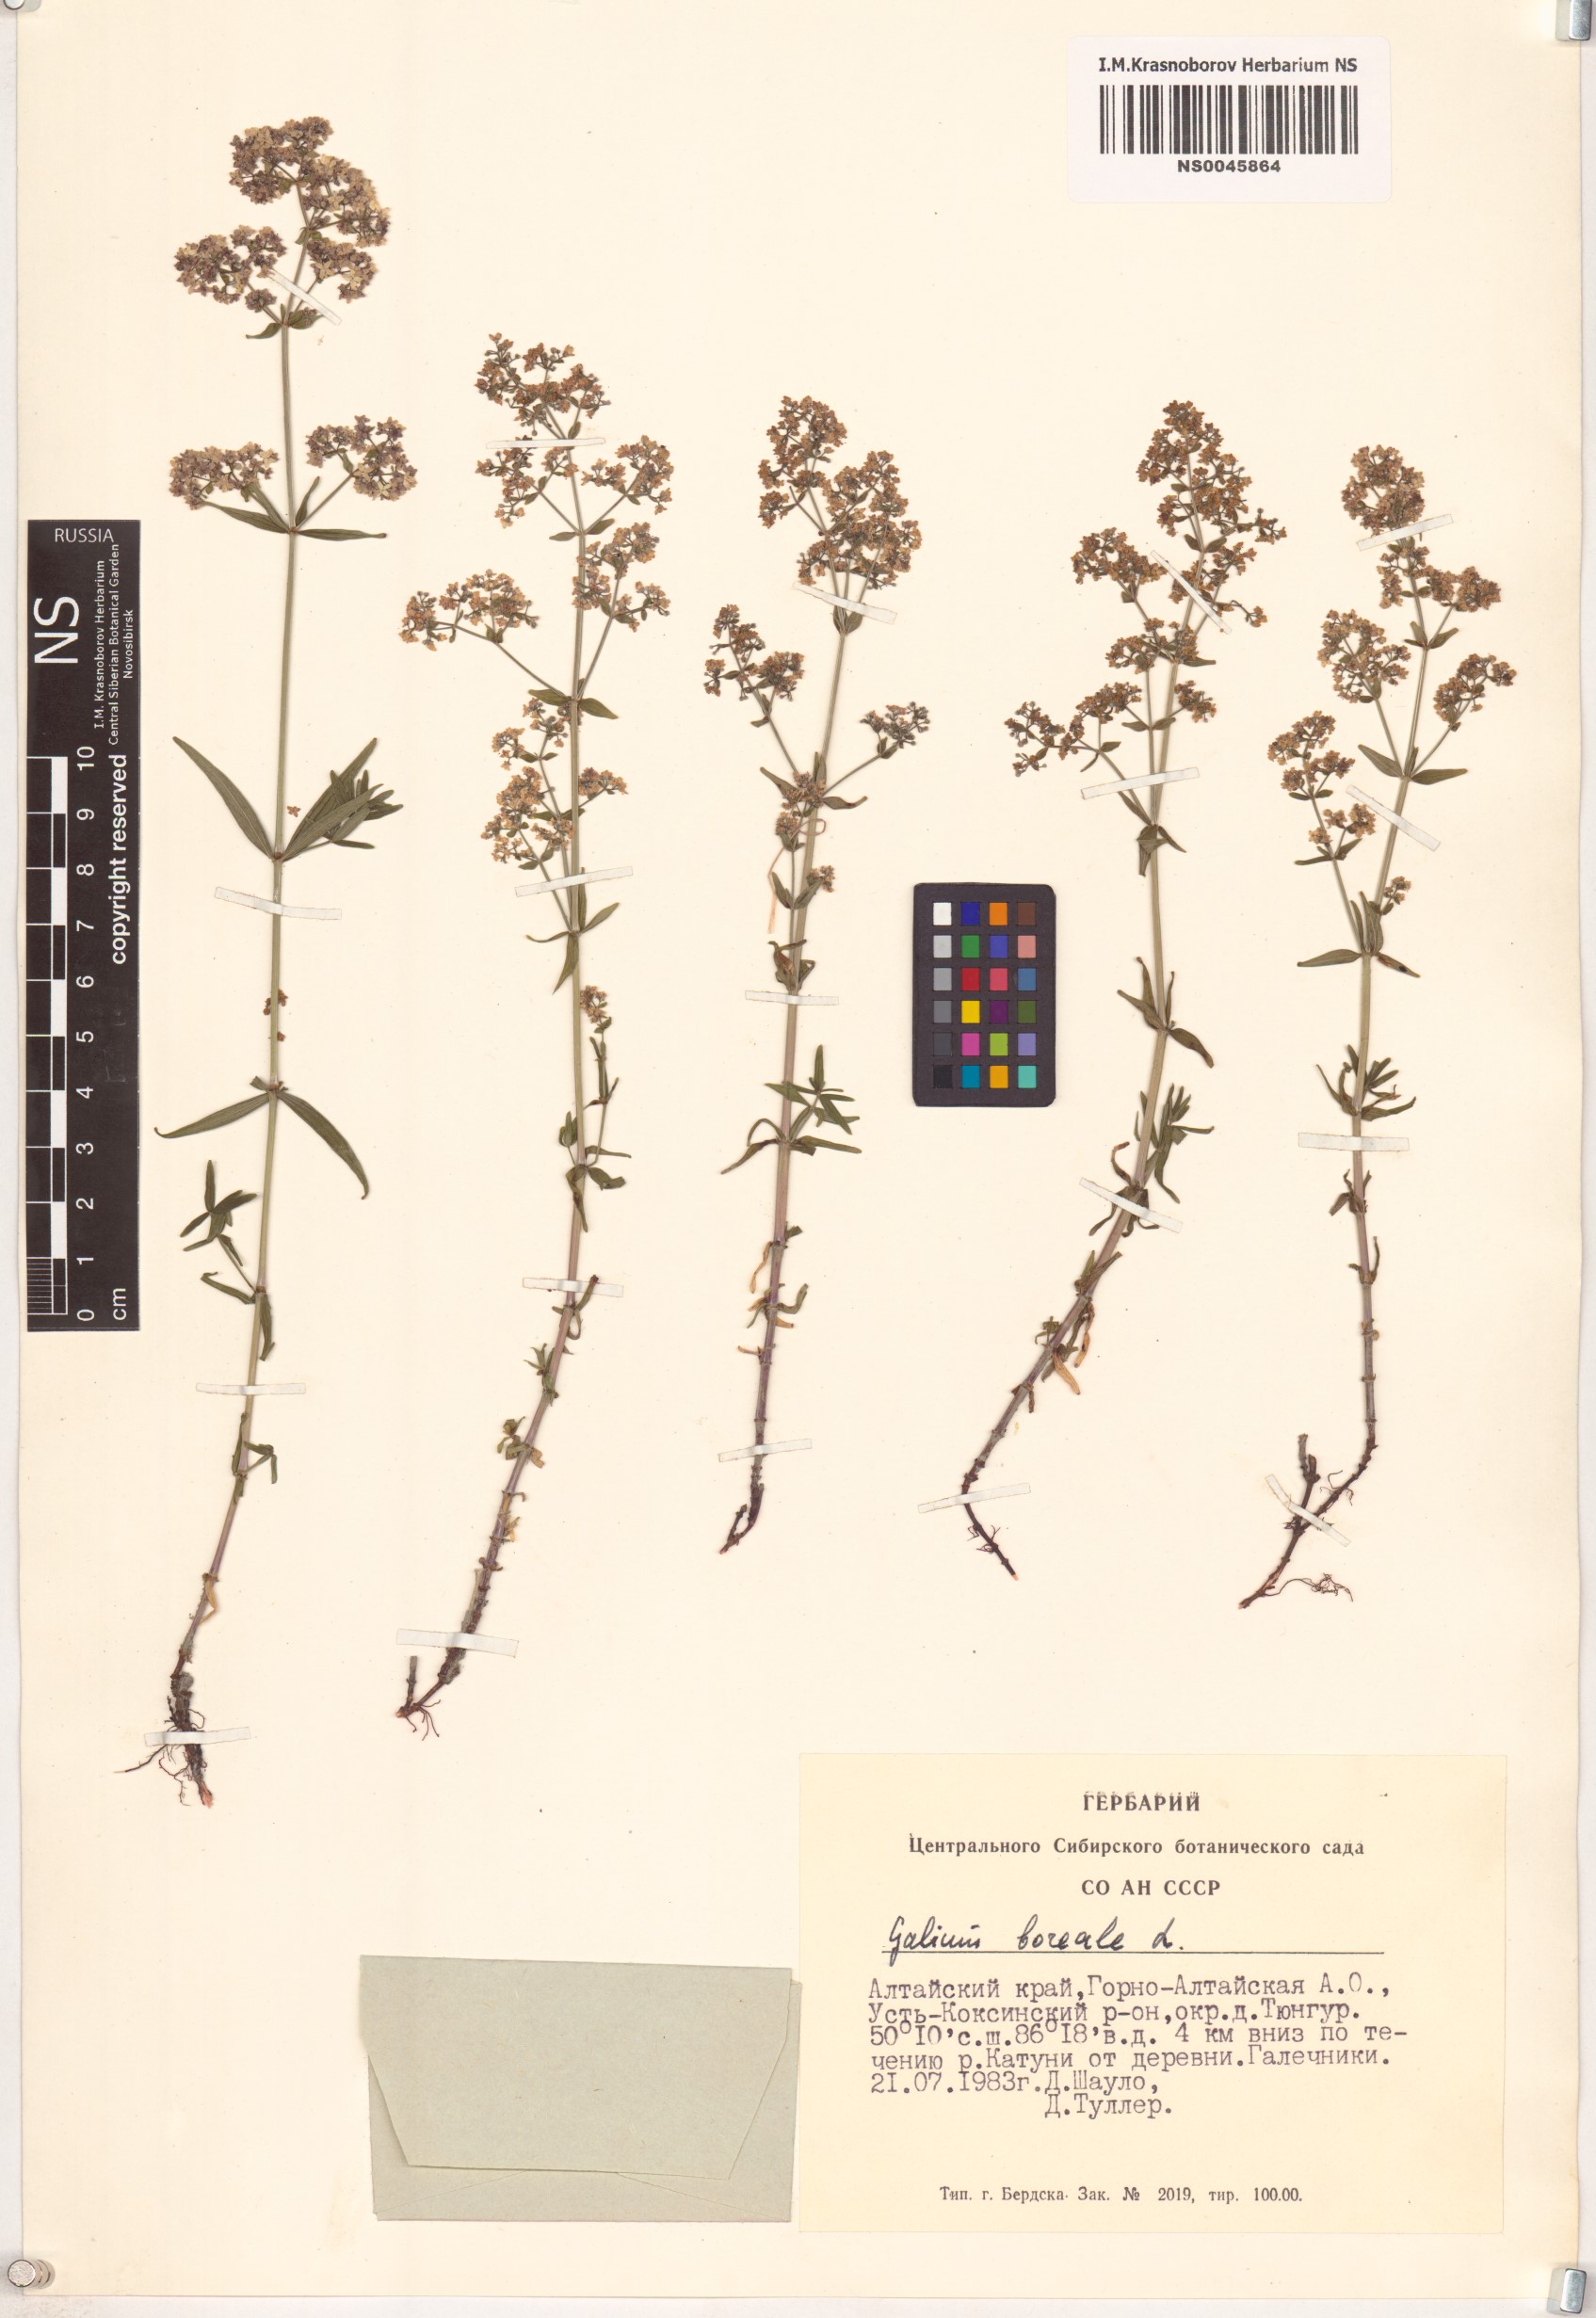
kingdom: Plantae
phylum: Tracheophyta
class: Magnoliopsida
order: Gentianales
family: Rubiaceae
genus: Galium
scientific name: Galium boreale
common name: Northern bedstraw
